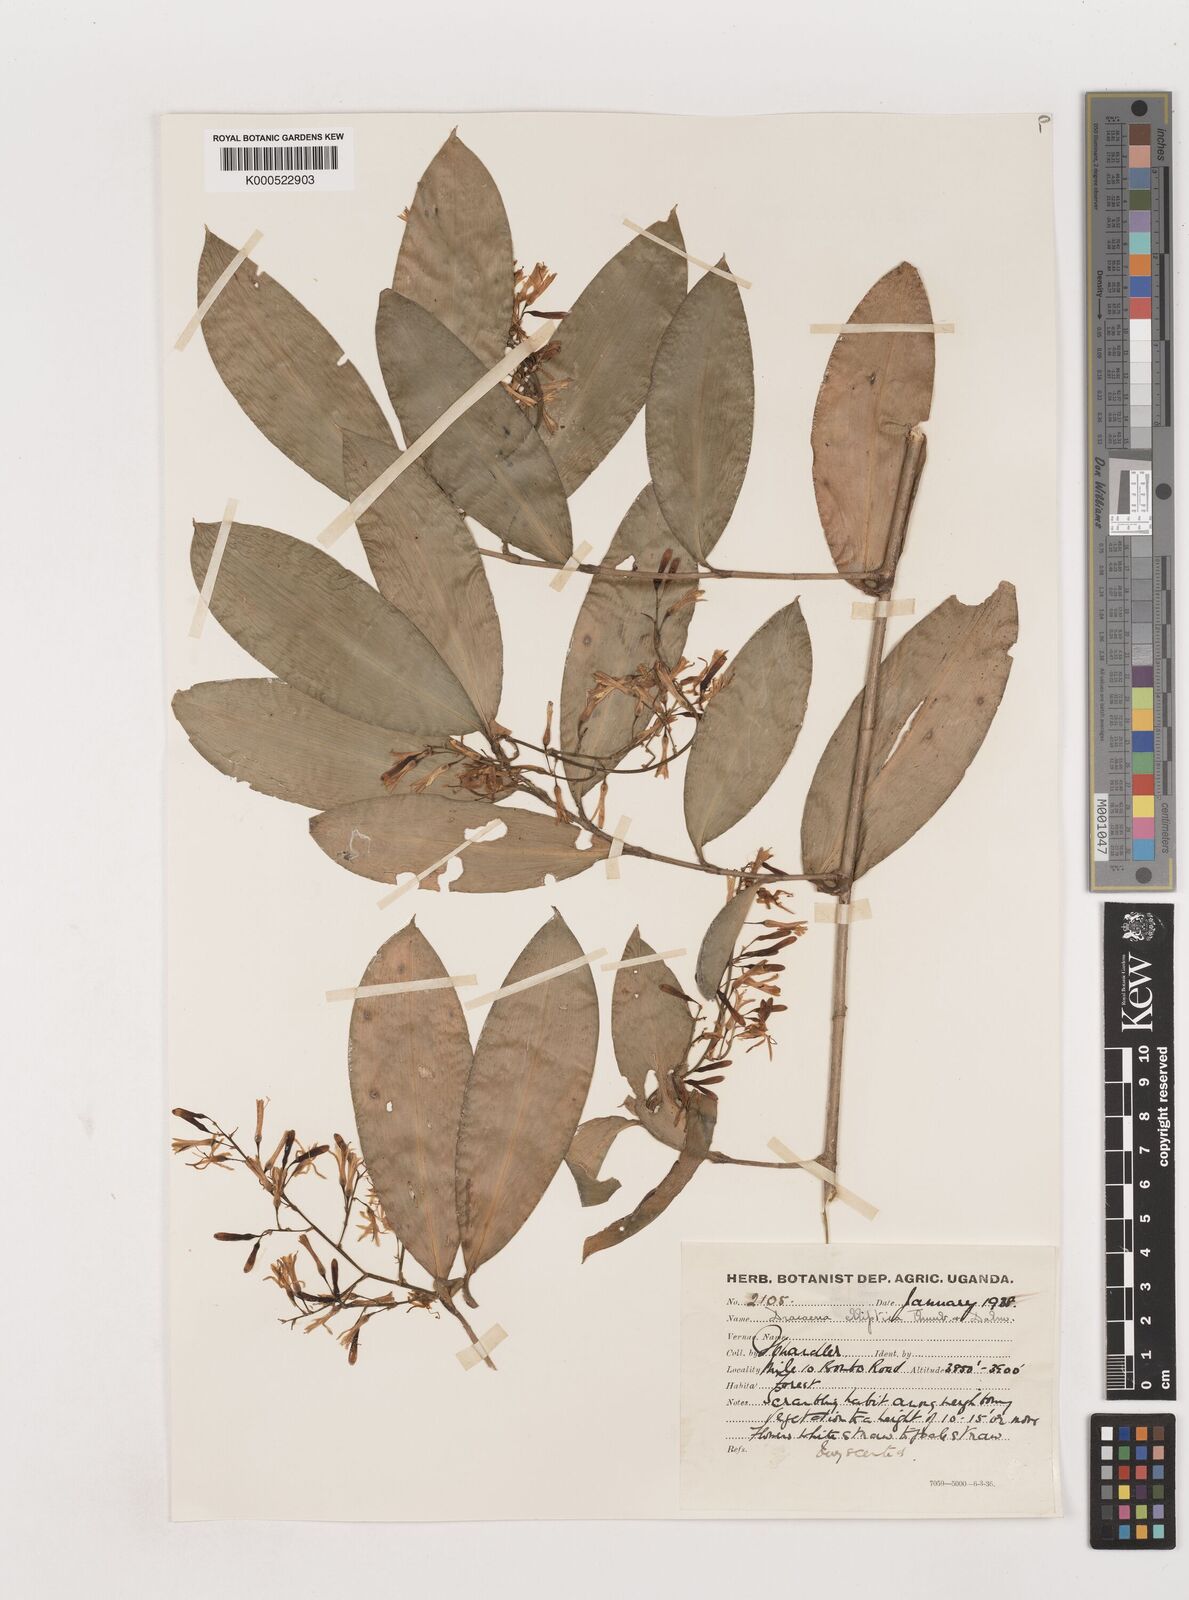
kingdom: Plantae
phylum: Tracheophyta
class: Liliopsida
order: Asparagales
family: Asparagaceae
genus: Dracaena
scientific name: Dracaena laxissima
